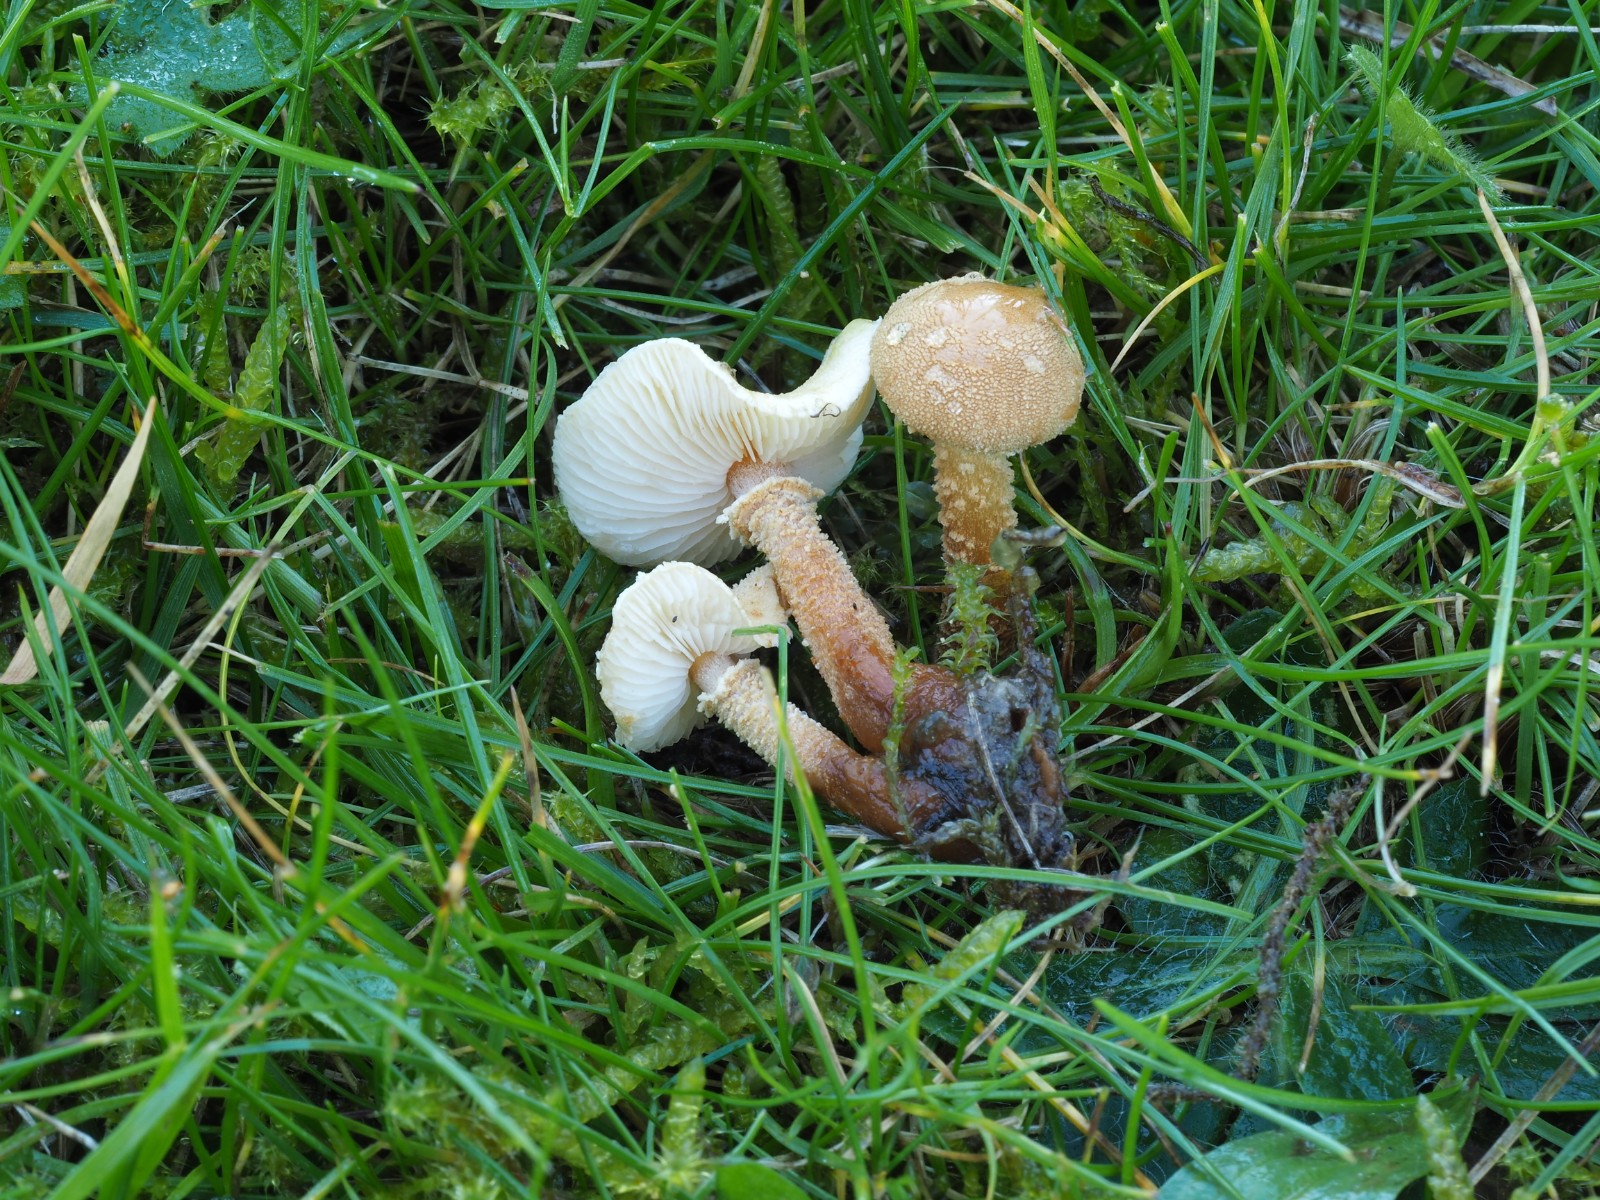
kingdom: Fungi
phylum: Basidiomycota
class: Agaricomycetes
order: Agaricales
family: Tricholomataceae
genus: Cystoderma
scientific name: Cystoderma amianthinum
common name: okkergul grynhat
